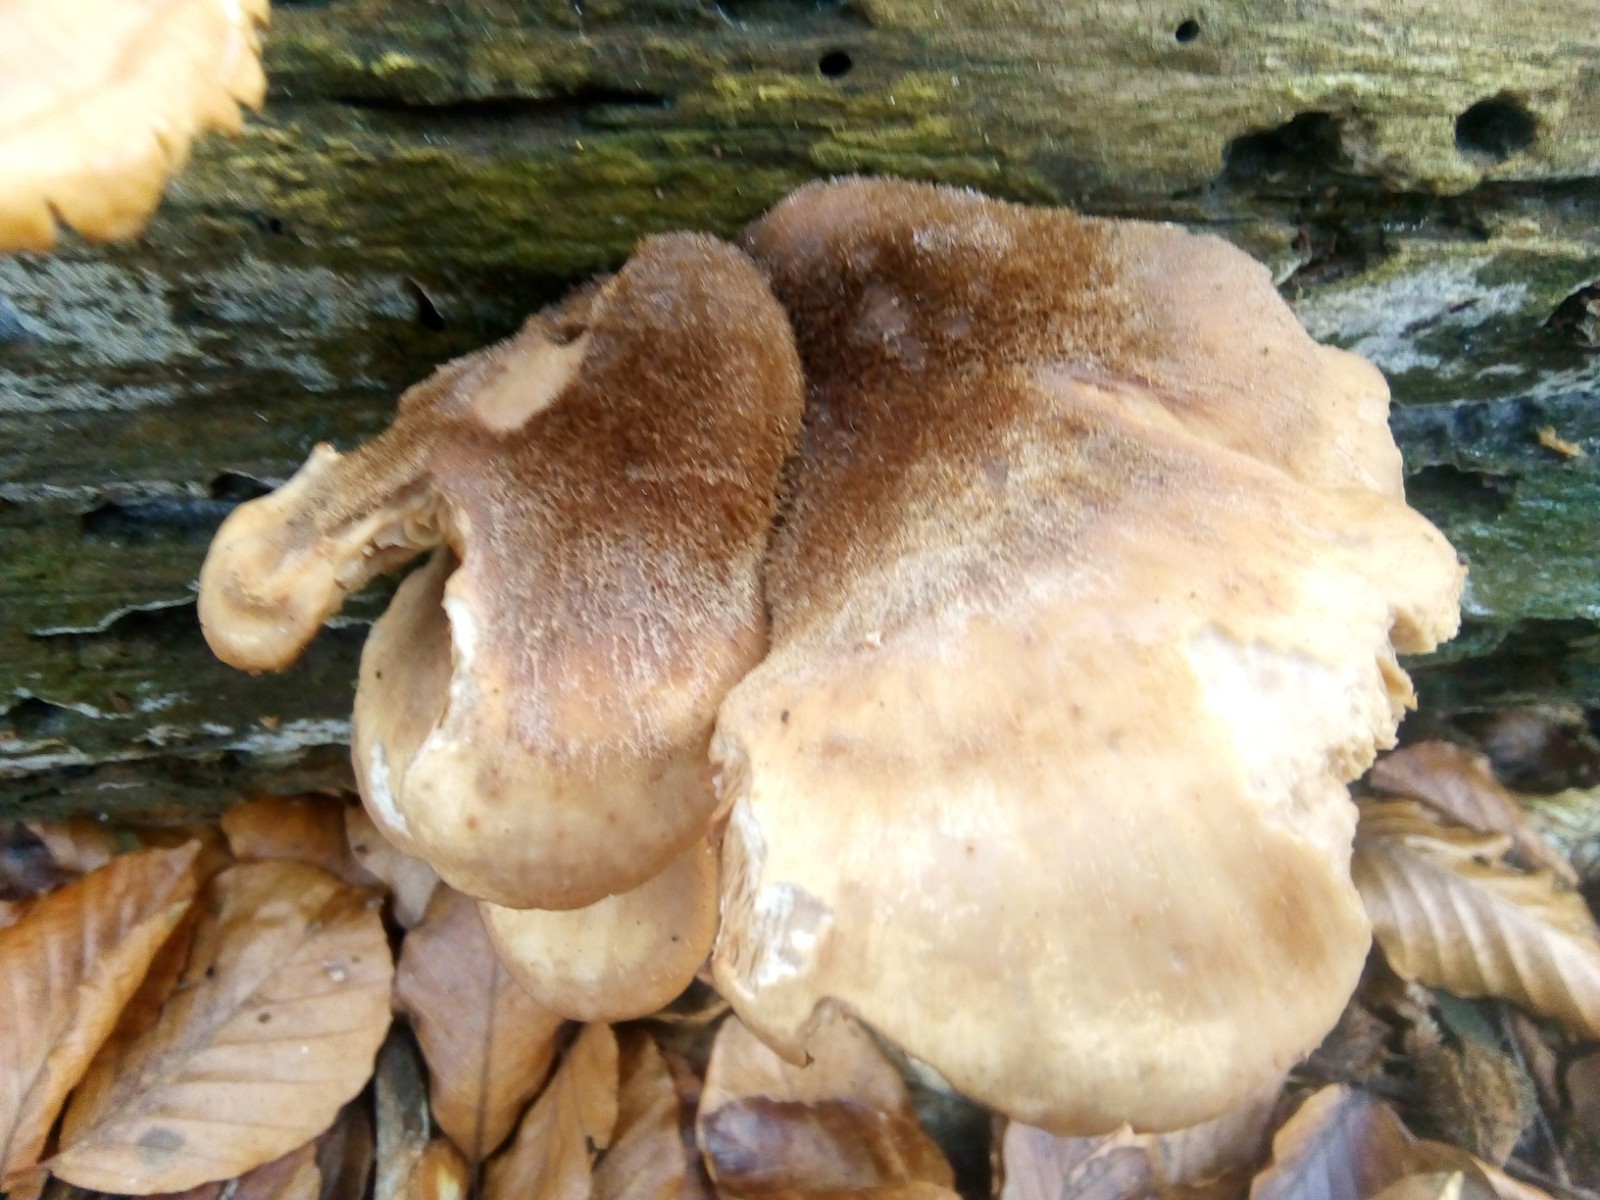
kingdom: Fungi
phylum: Basidiomycota
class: Agaricomycetes
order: Russulales
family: Auriscalpiaceae
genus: Lentinellus
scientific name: Lentinellus ursinus
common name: børstehåret savbladhat
